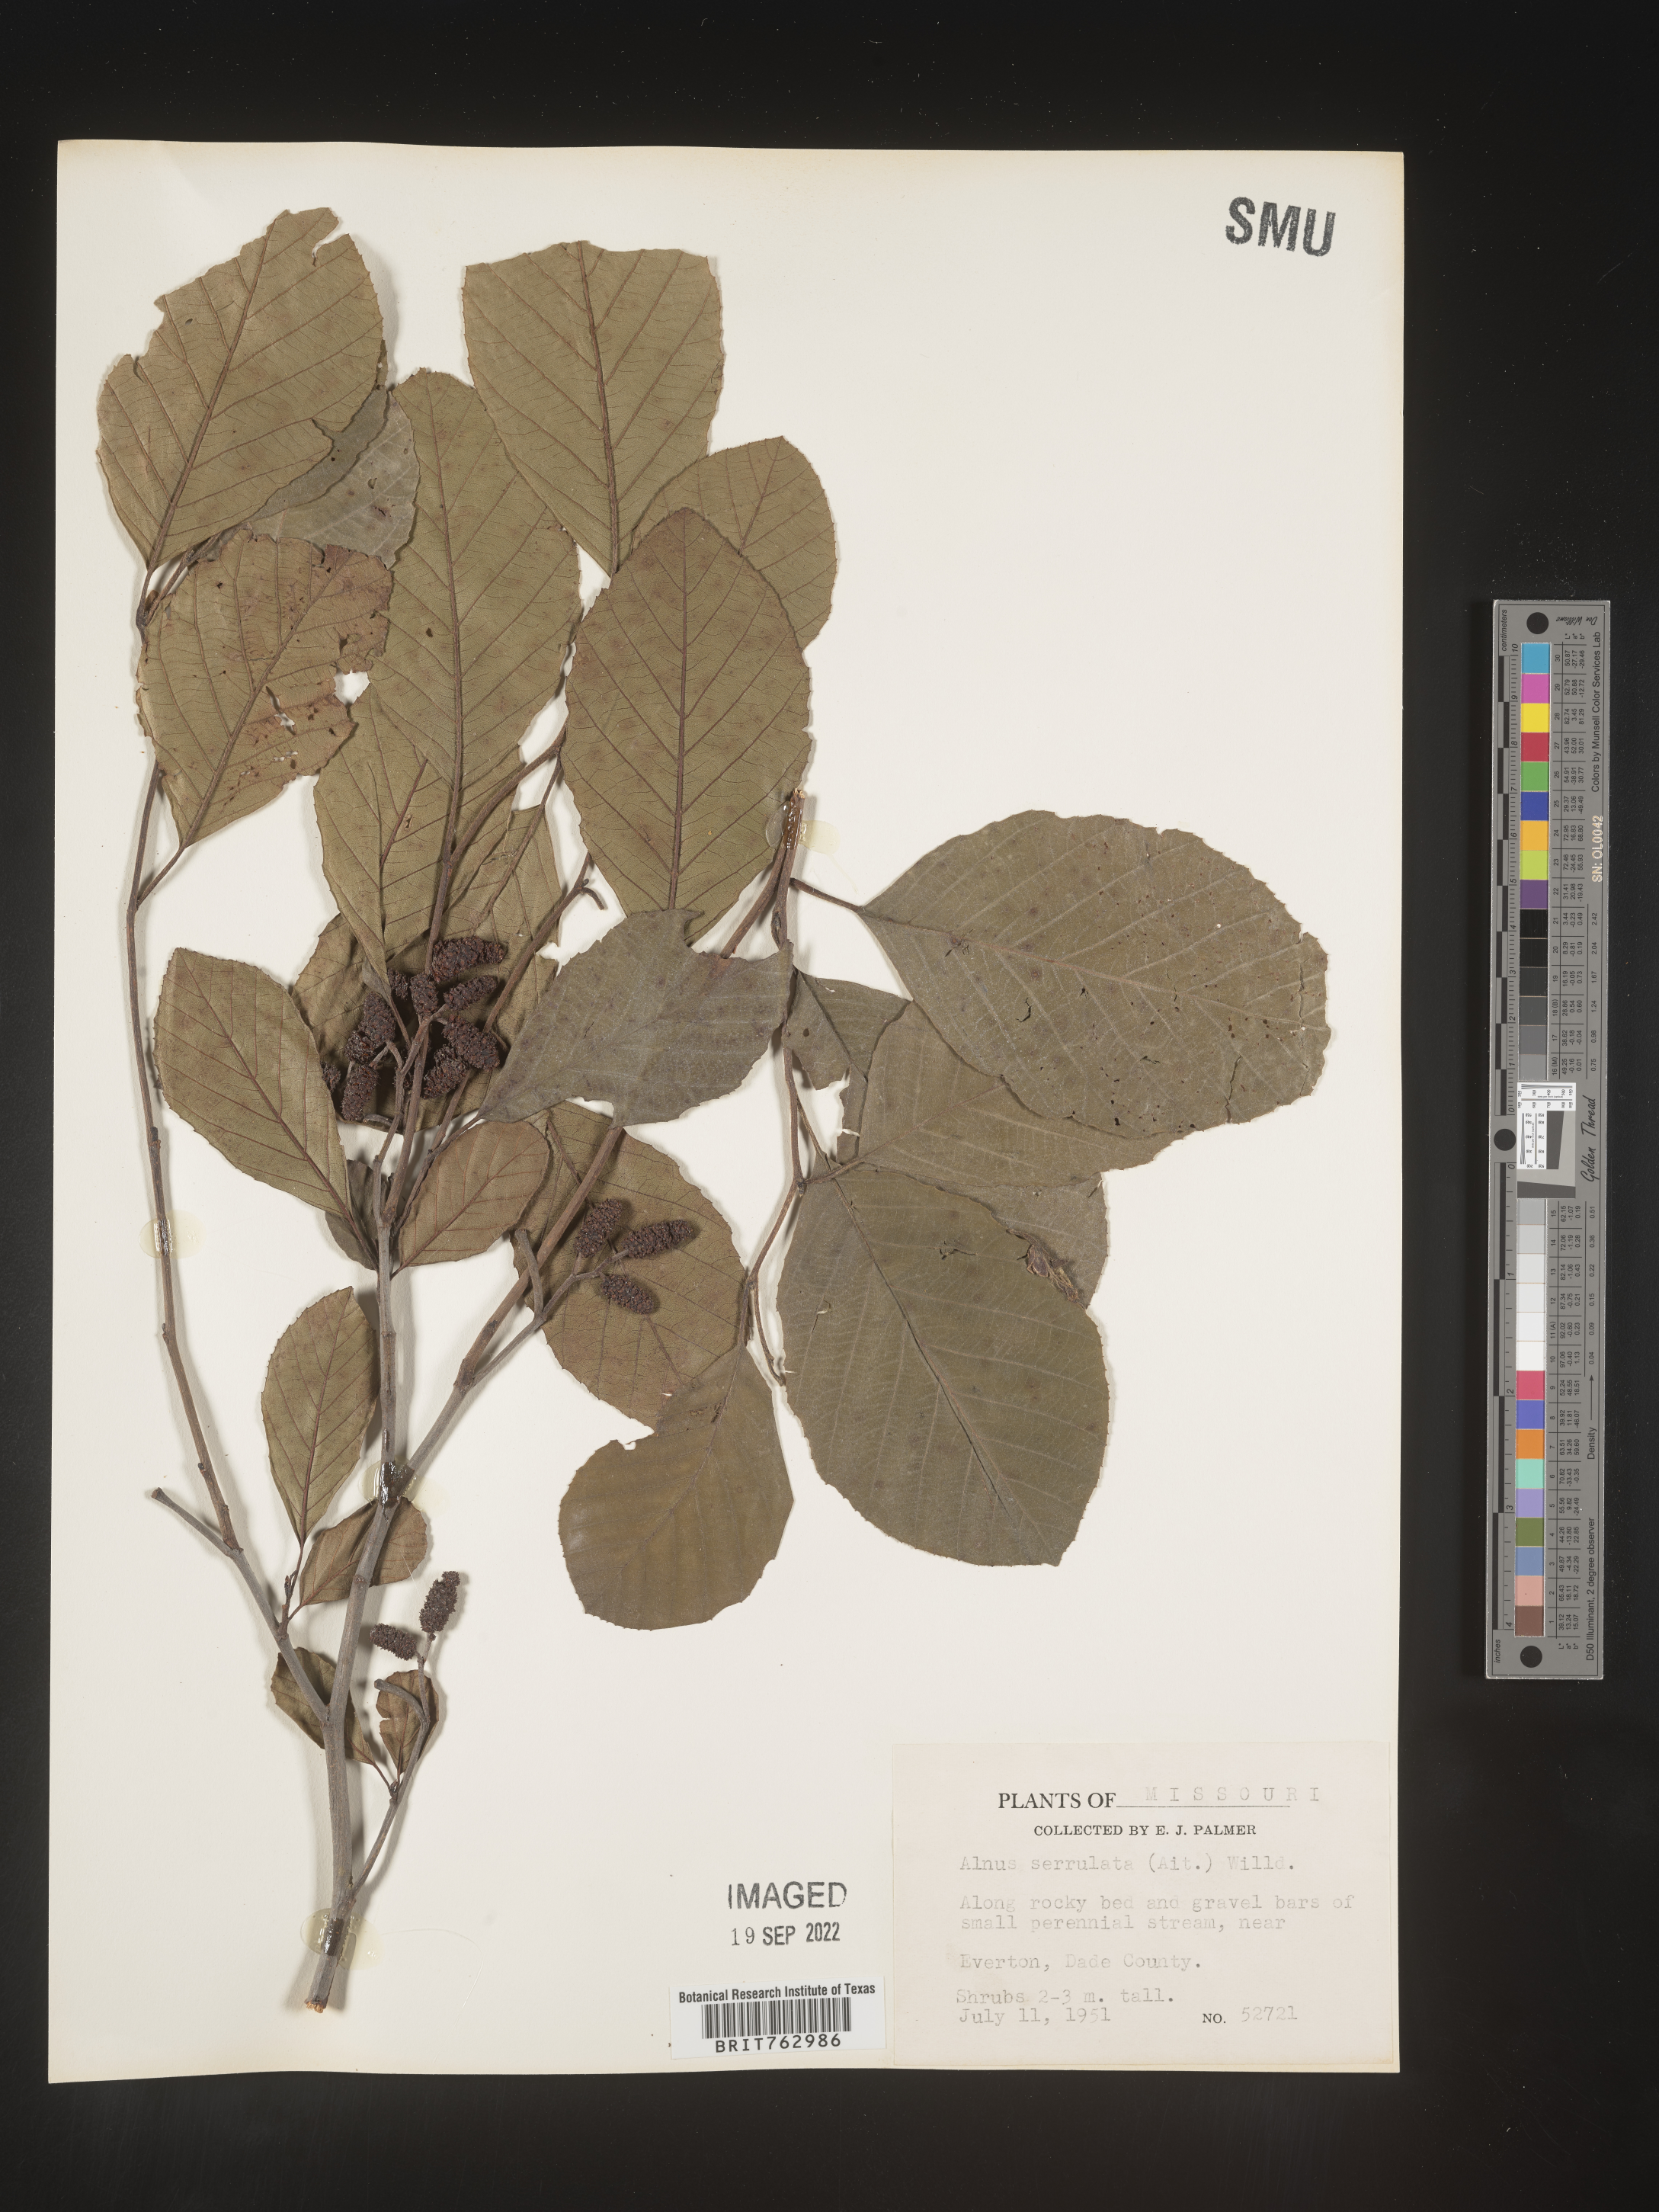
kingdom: Plantae
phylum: Tracheophyta
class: Magnoliopsida
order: Fagales
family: Betulaceae
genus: Alnus
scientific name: Alnus serrulata
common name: Hazel alder
